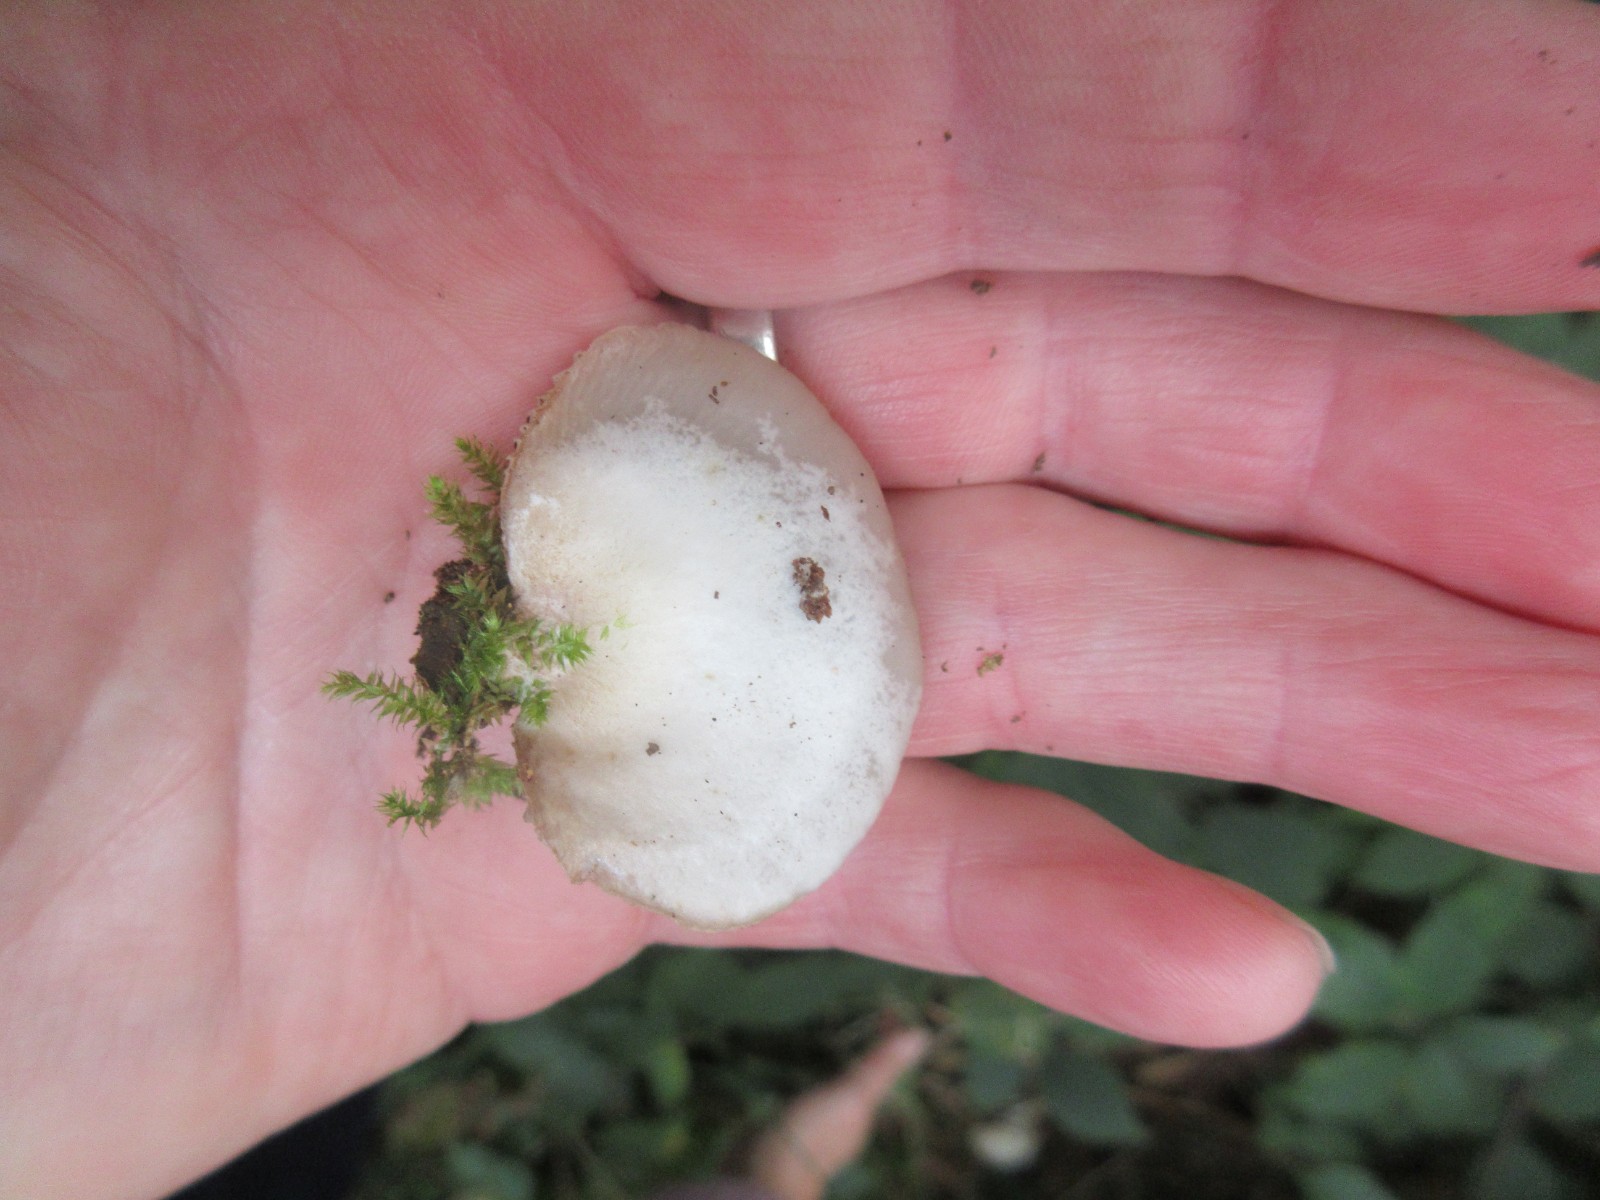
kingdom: Fungi
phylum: Basidiomycota
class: Agaricomycetes
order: Agaricales
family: Crepidotaceae
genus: Crepidotus
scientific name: Crepidotus mollis
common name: blød muslingesvamp
